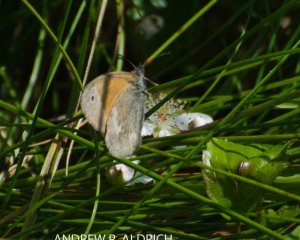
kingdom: Animalia
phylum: Arthropoda
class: Insecta
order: Lepidoptera
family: Nymphalidae
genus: Coenonympha
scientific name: Coenonympha tullia
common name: Large Heath
